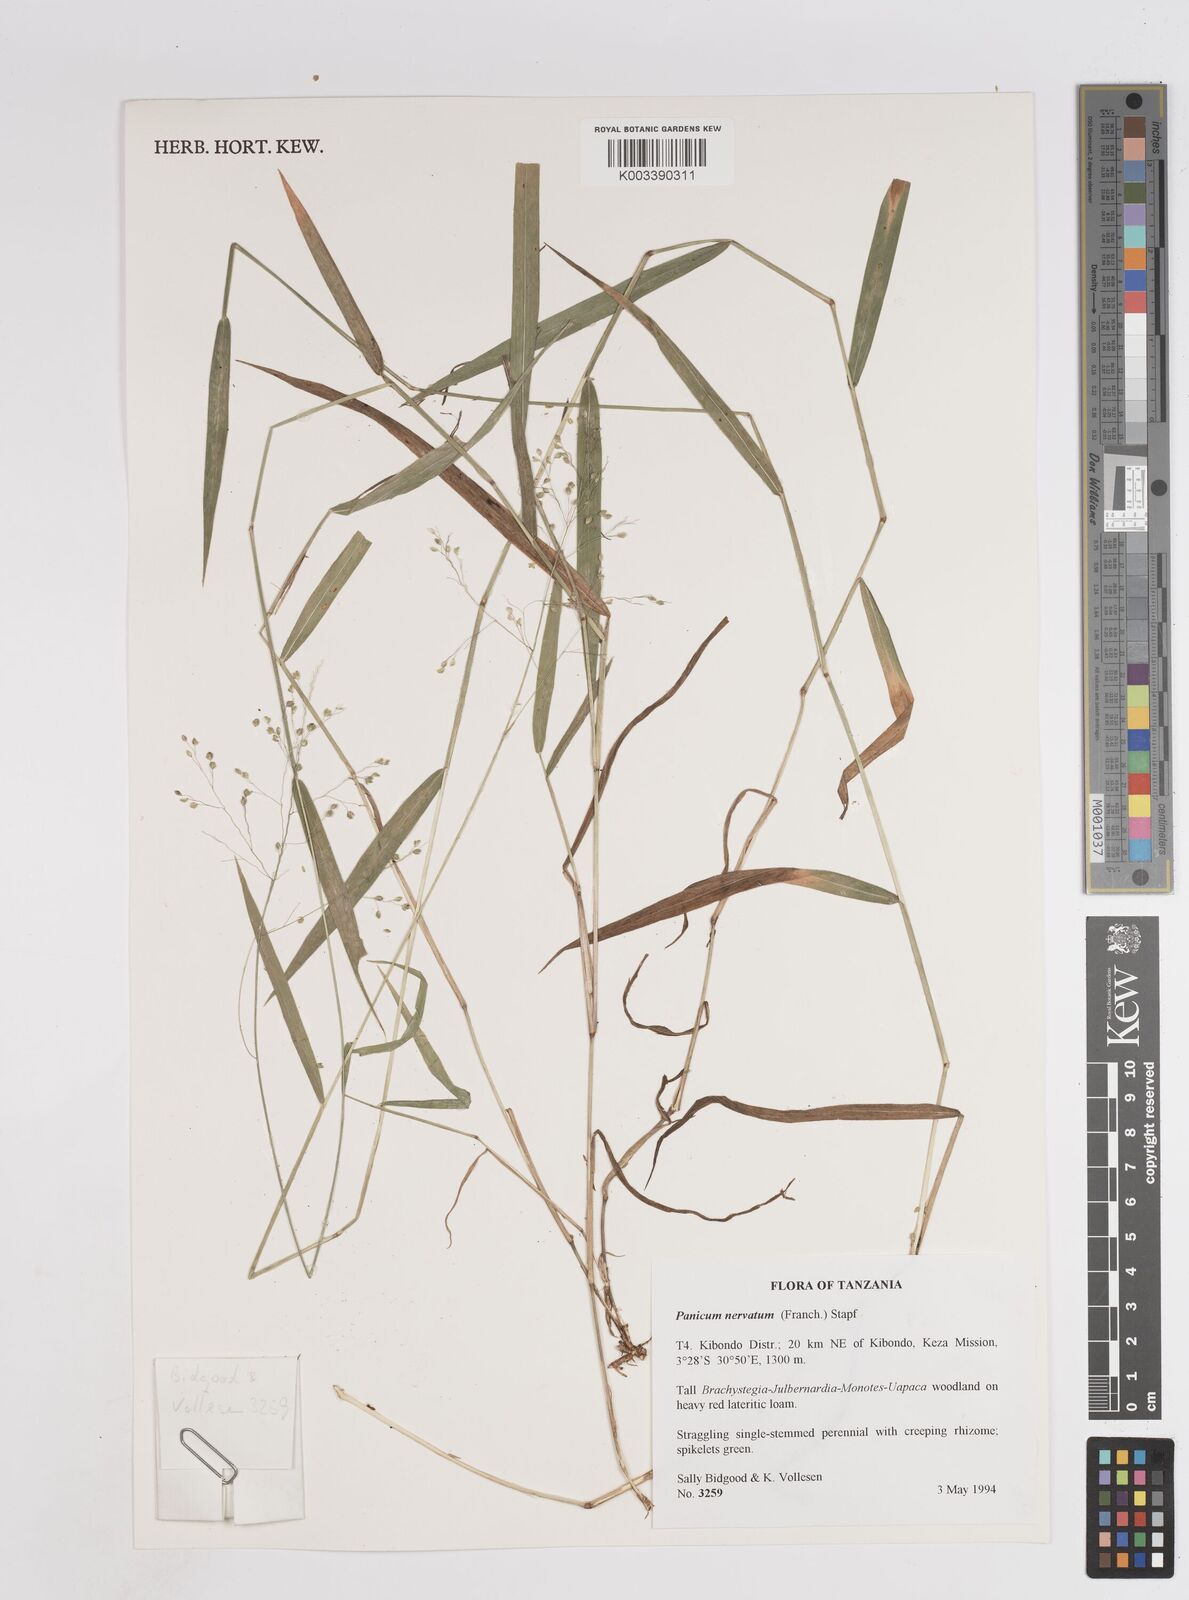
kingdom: Plantae
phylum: Tracheophyta
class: Liliopsida
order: Poales
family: Poaceae
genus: Trichanthecium
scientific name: Trichanthecium nervatum
